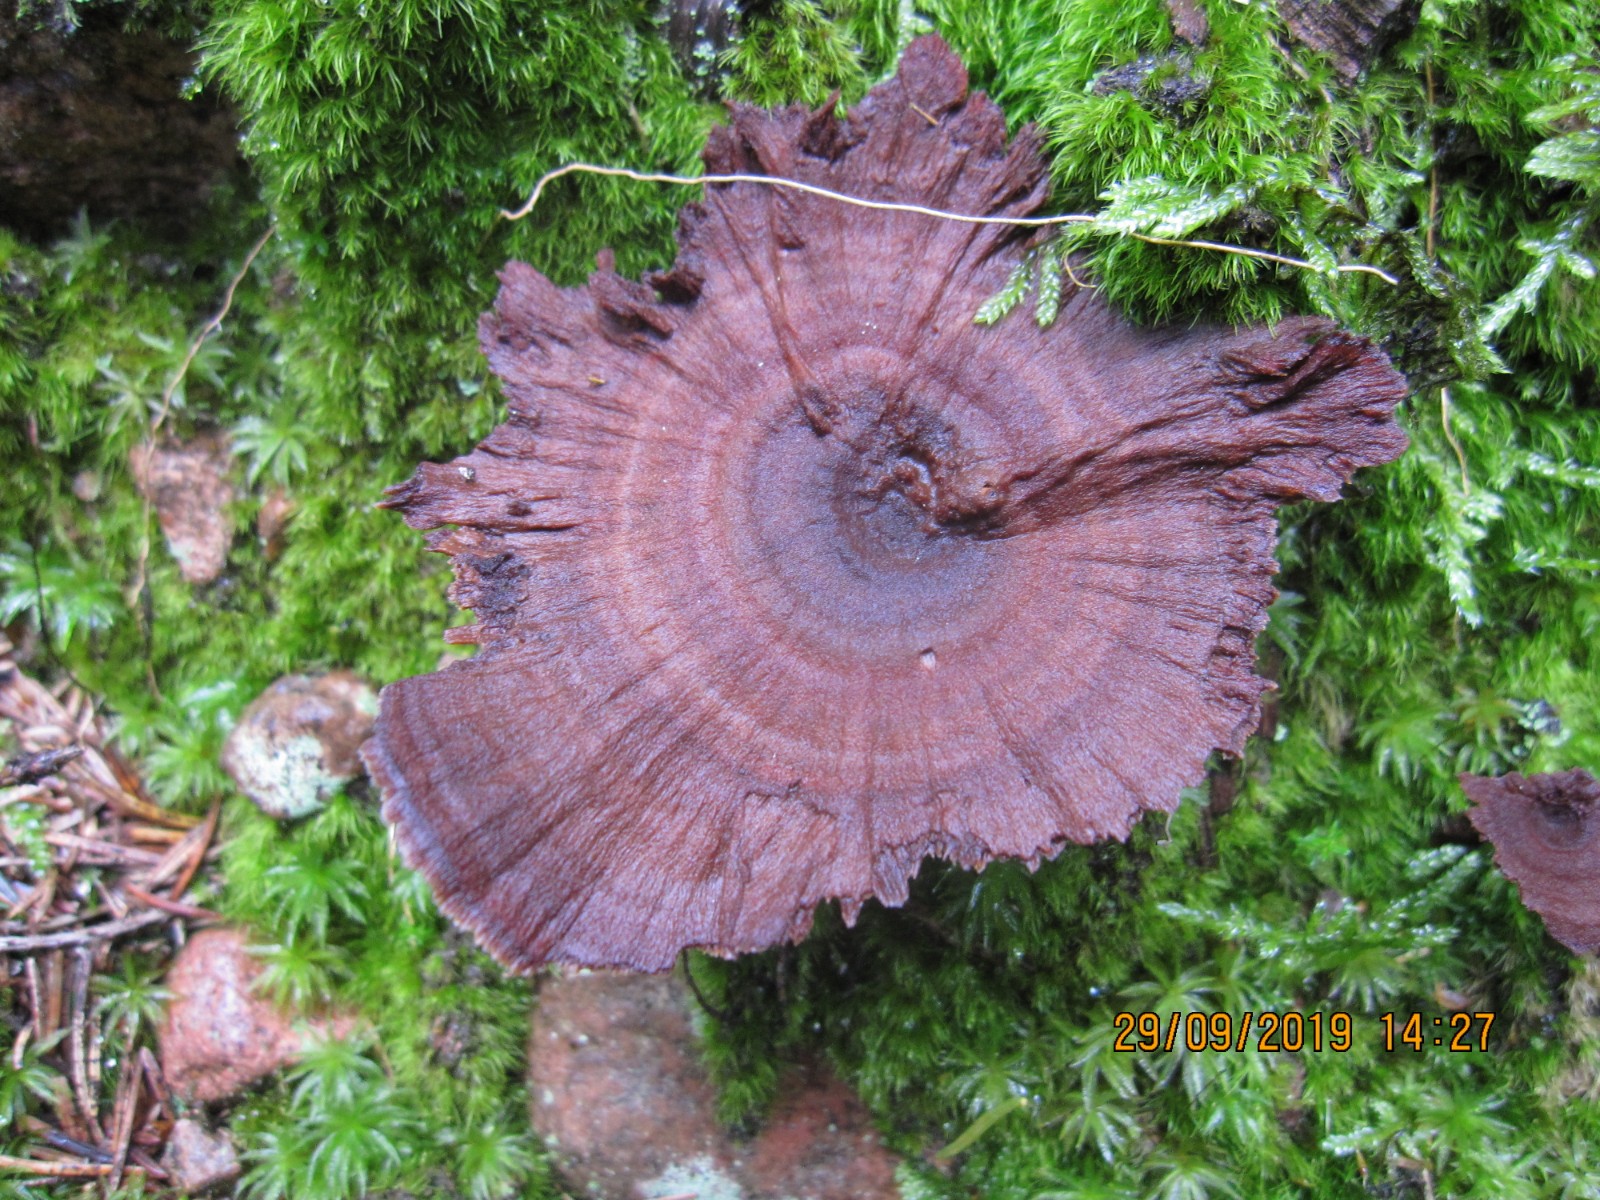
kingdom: Fungi
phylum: Basidiomycota
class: Agaricomycetes
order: Hymenochaetales
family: Hymenochaetaceae
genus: Coltricia
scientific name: Coltricia perennis
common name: almindelig sandporesvamp
